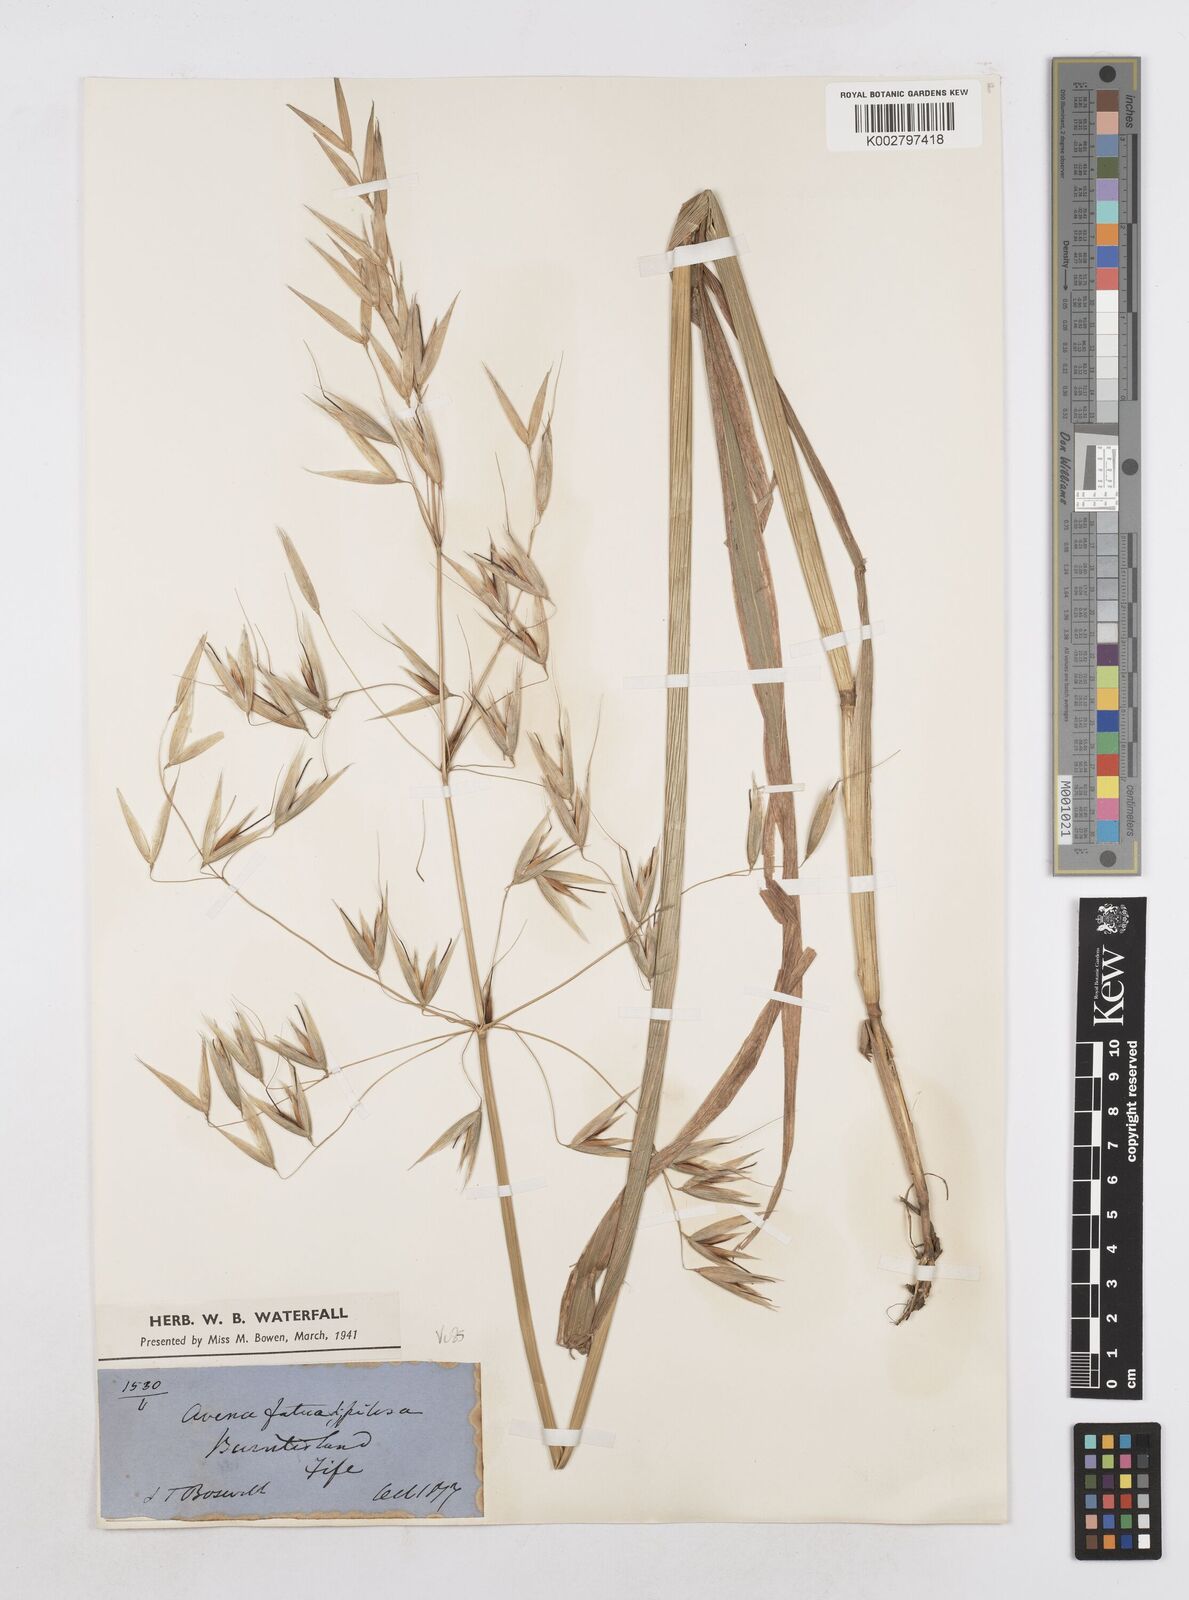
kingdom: Plantae
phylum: Tracheophyta
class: Liliopsida
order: Poales
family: Poaceae
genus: Avena
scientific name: Avena fatua
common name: Wild oat
